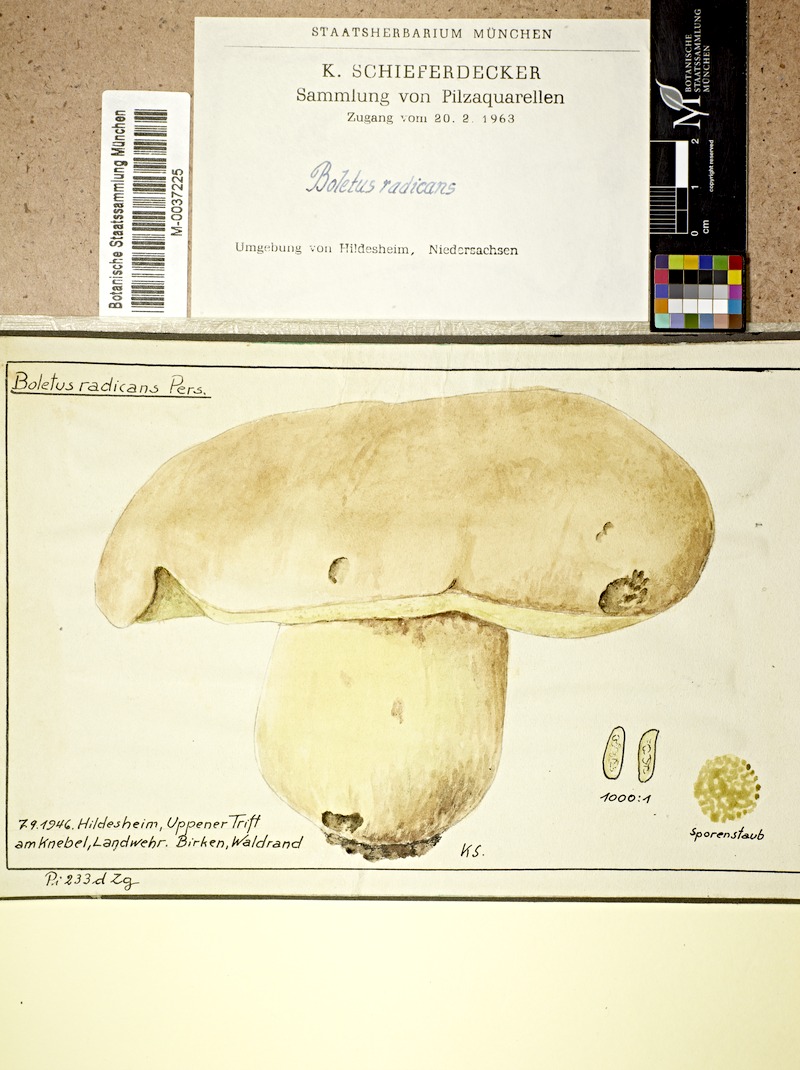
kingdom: Fungi
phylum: Basidiomycota
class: Agaricomycetes
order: Boletales
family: Boletaceae
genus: Caloboletus
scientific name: Caloboletus radicans
